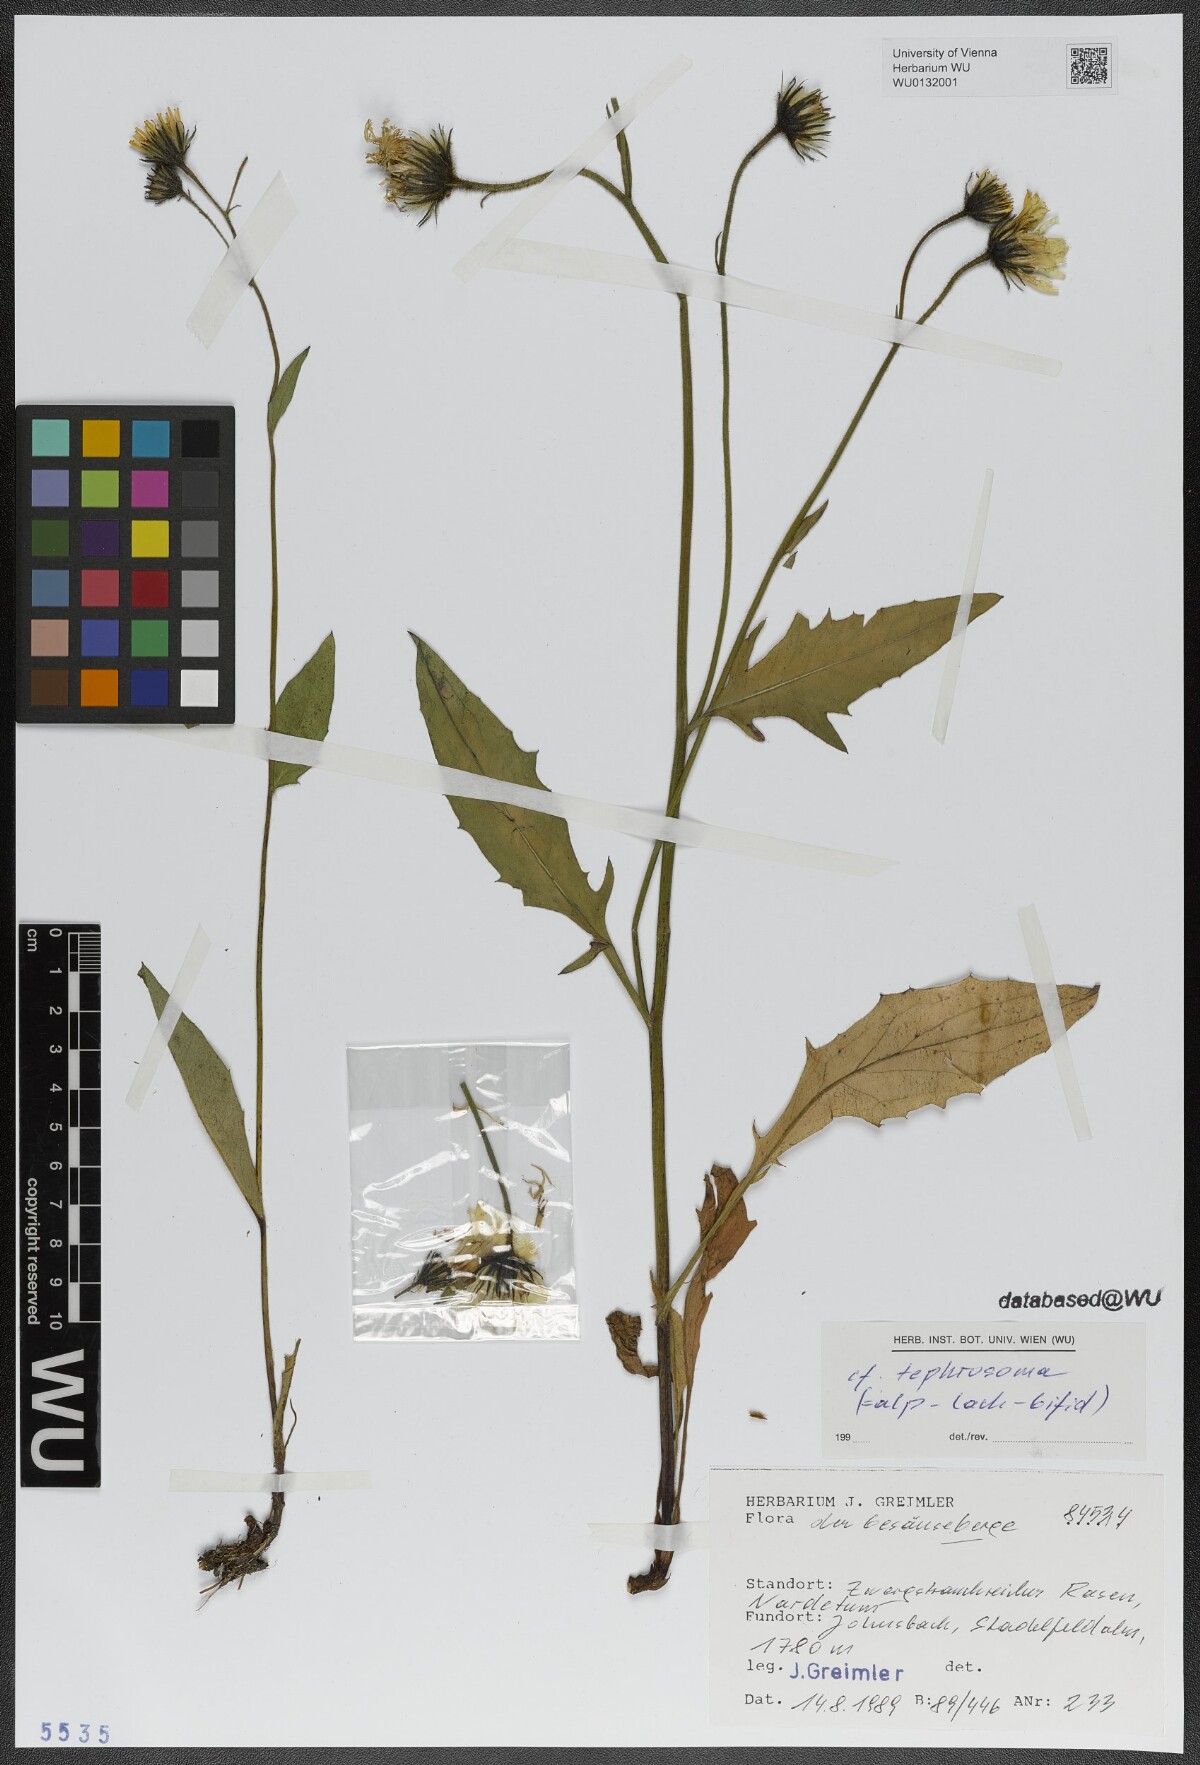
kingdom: Plantae
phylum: Tracheophyta
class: Magnoliopsida
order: Asterales
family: Asteraceae
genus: Hieracium
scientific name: Hieracium chlorocephalum
